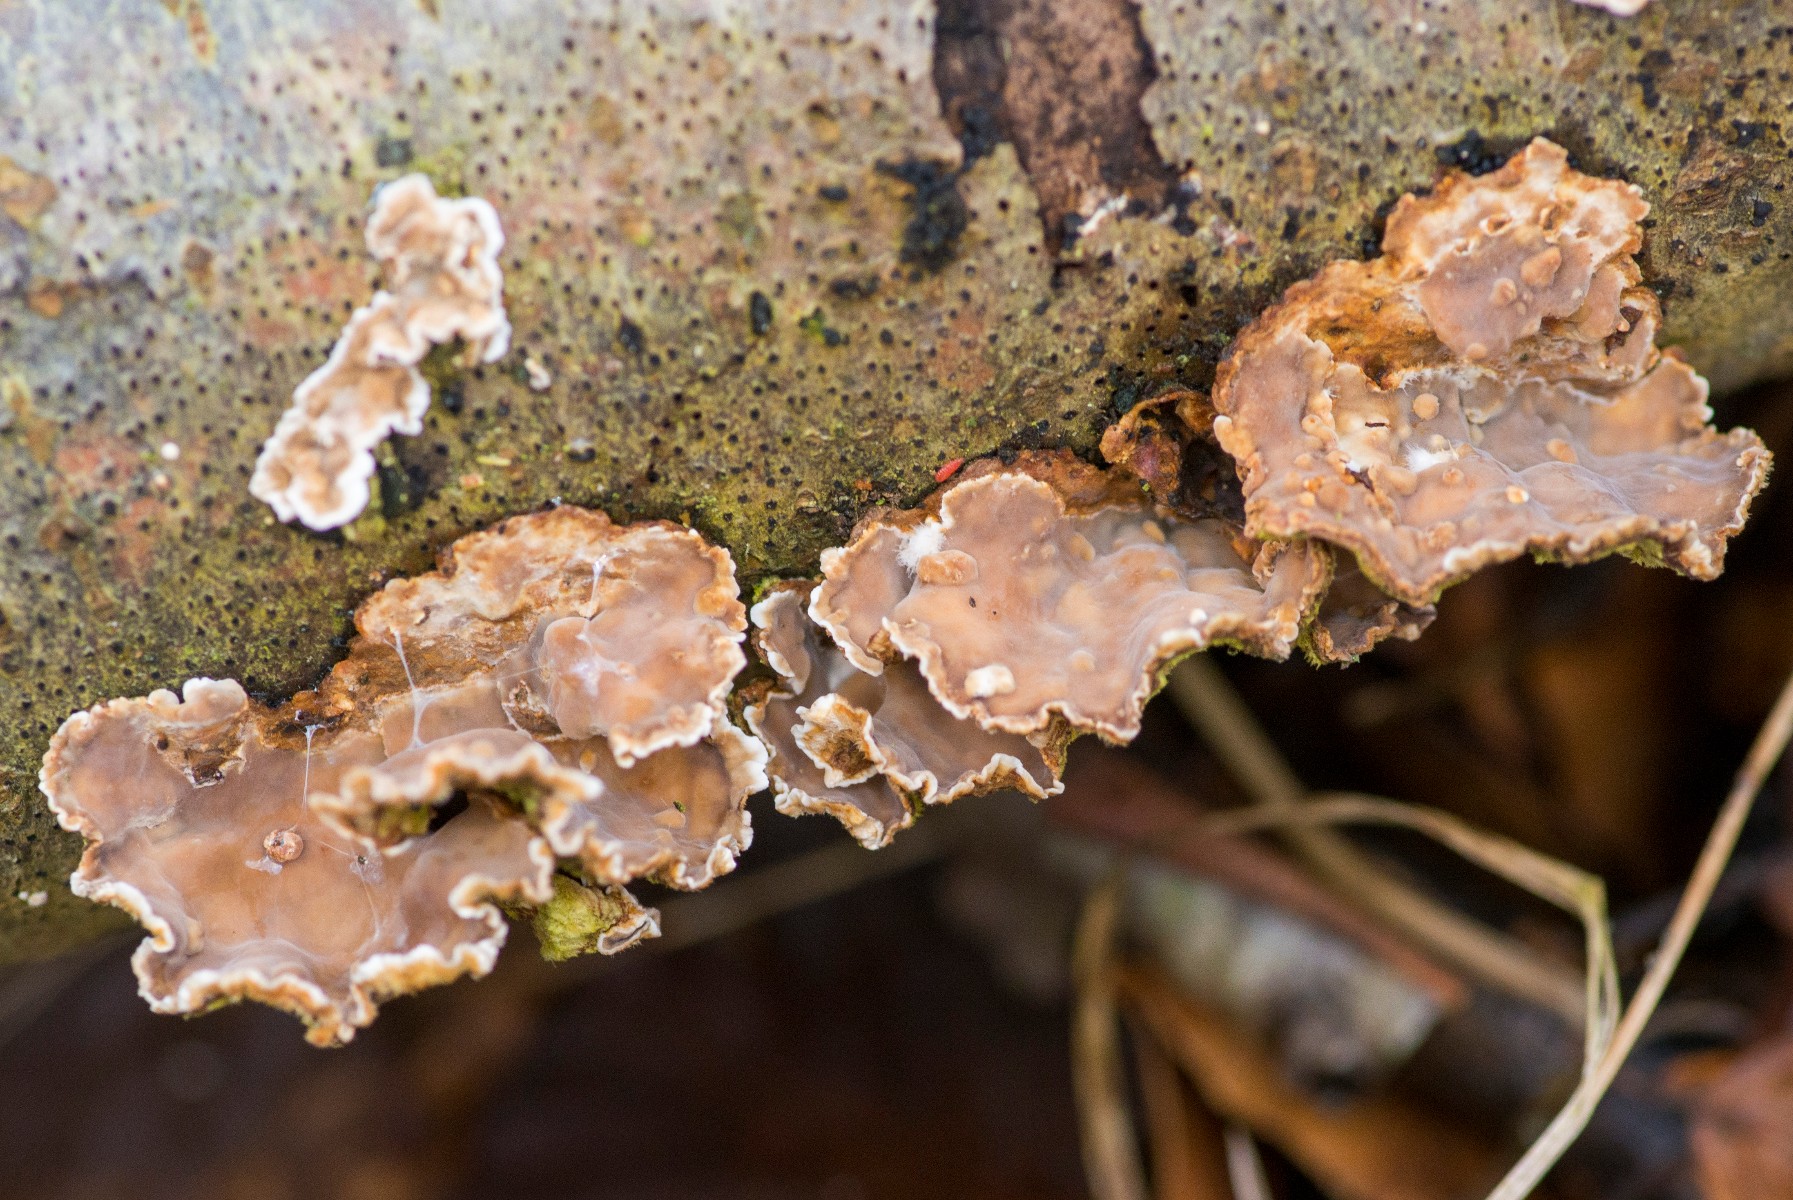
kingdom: Fungi
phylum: Basidiomycota
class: Agaricomycetes
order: Russulales
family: Stereaceae
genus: Stereum
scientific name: Stereum hirsutum
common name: håret lædersvamp
